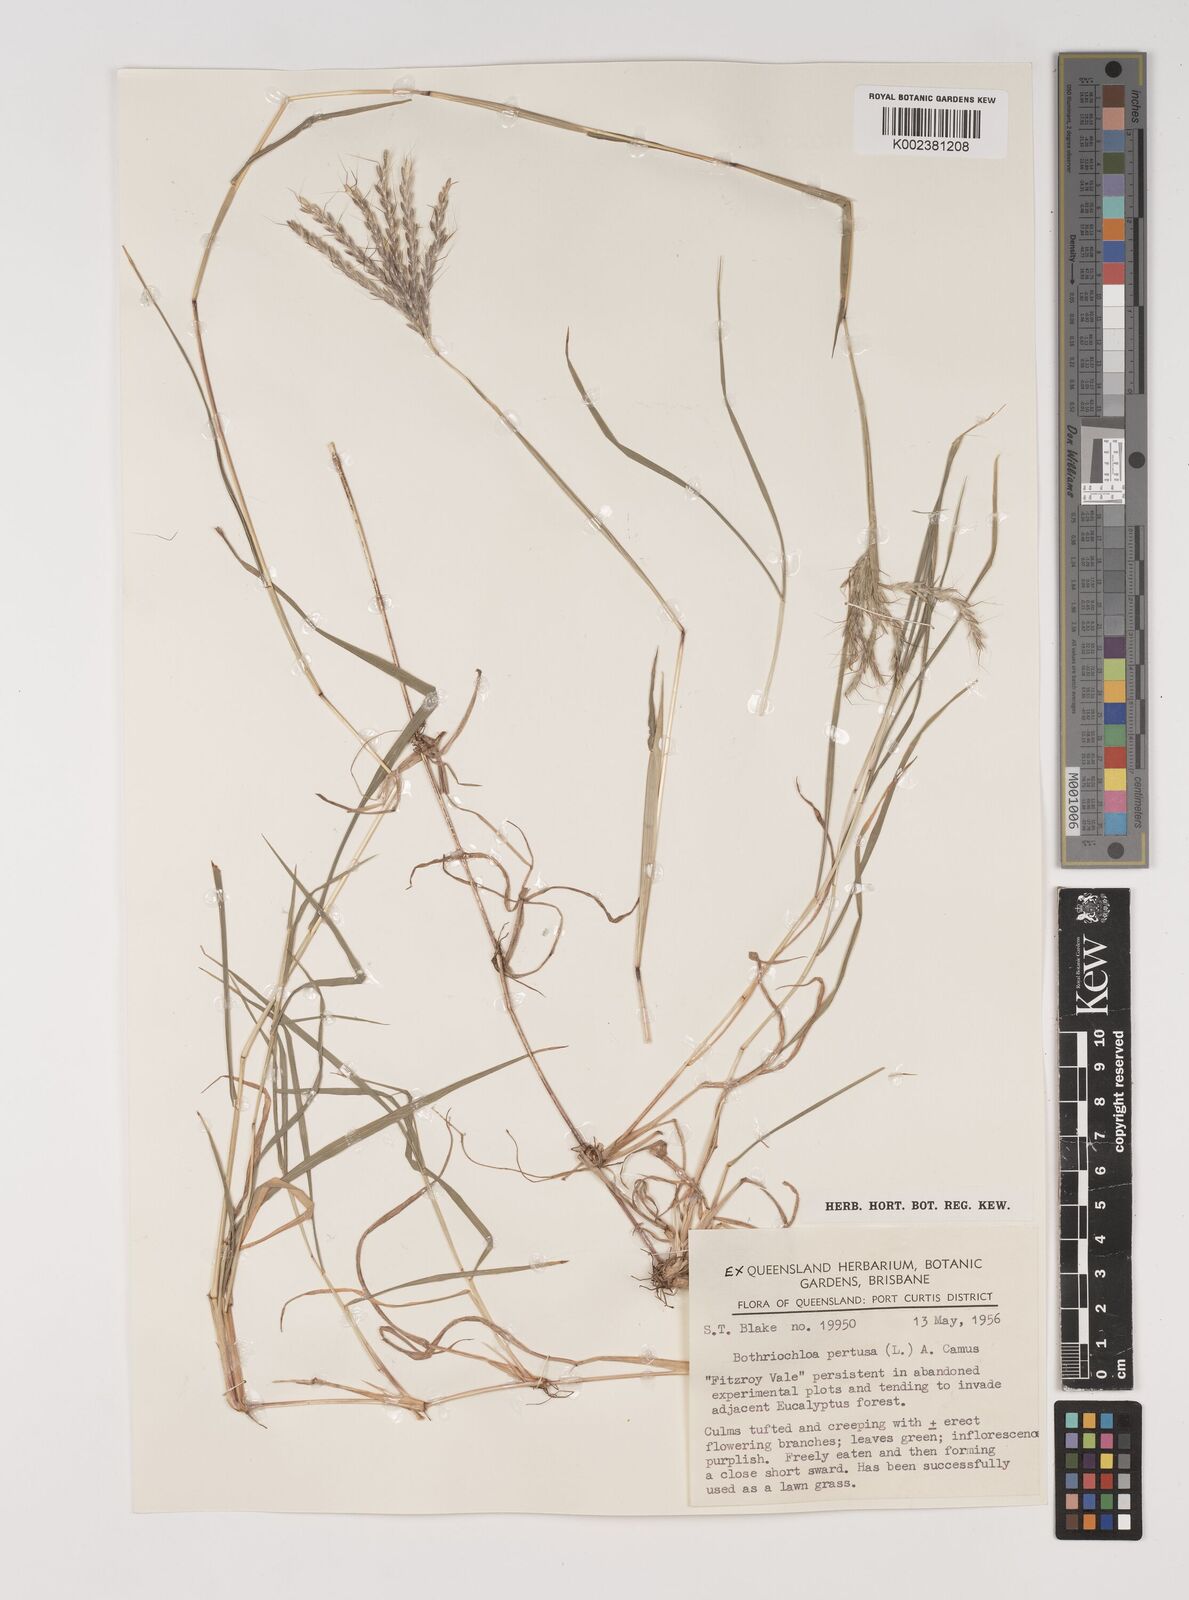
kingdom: Plantae
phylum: Tracheophyta
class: Liliopsida
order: Poales
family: Poaceae
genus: Bothriochloa
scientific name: Bothriochloa pertusa
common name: Pitted beardgrass
